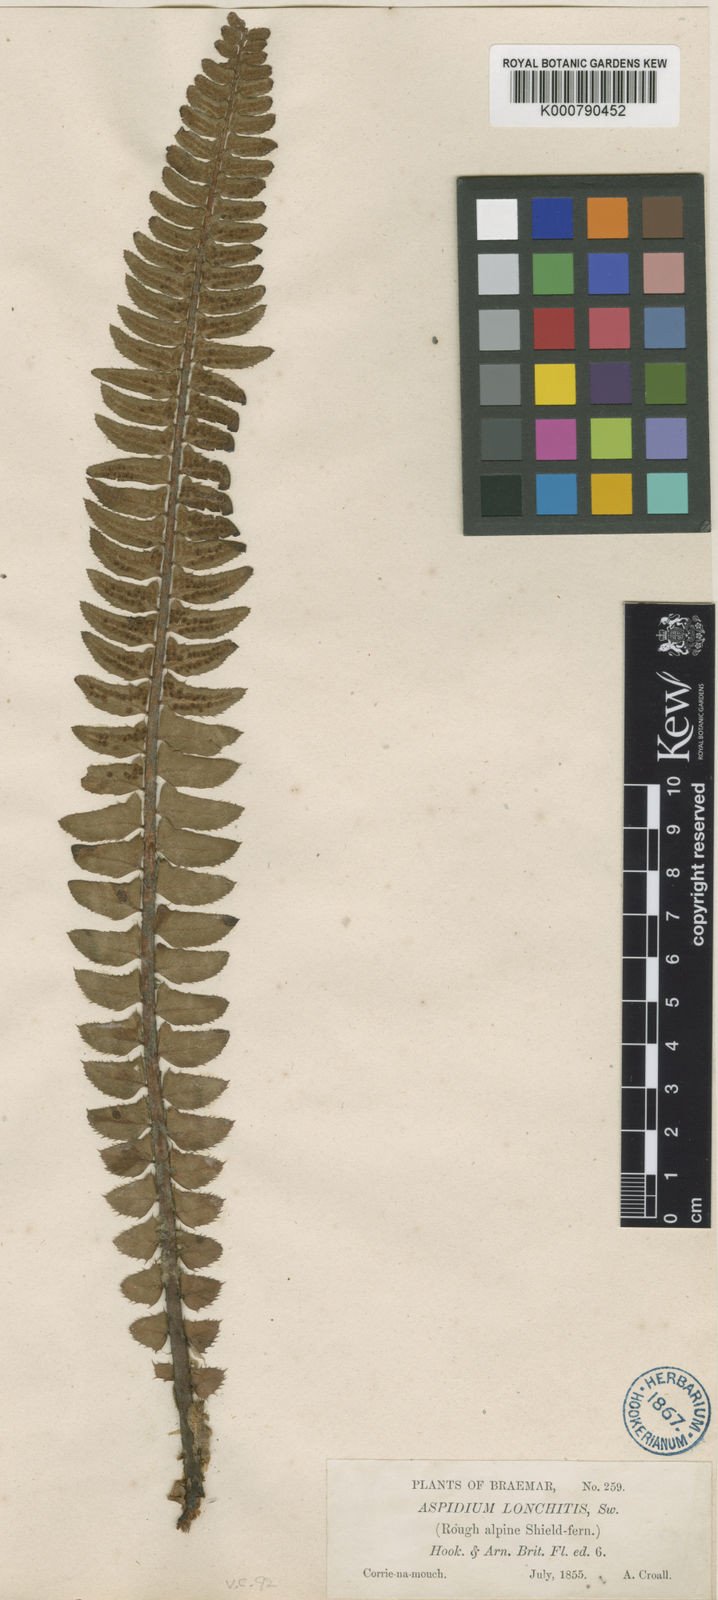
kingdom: Plantae
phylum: Tracheophyta
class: Polypodiopsida
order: Polypodiales
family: Dryopteridaceae
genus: Polystichum
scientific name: Polystichum lonchitis
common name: Holly fern
